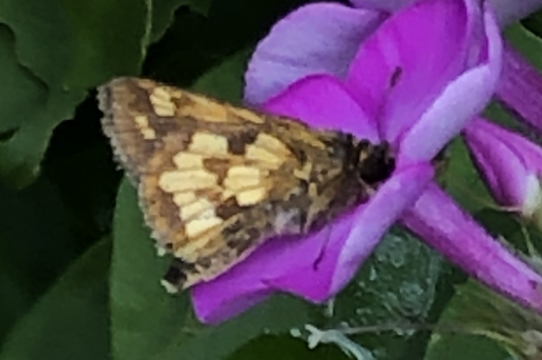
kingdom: Animalia
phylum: Arthropoda
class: Insecta
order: Lepidoptera
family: Hesperiidae
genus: Polites
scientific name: Polites coras
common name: Peck's Skipper
